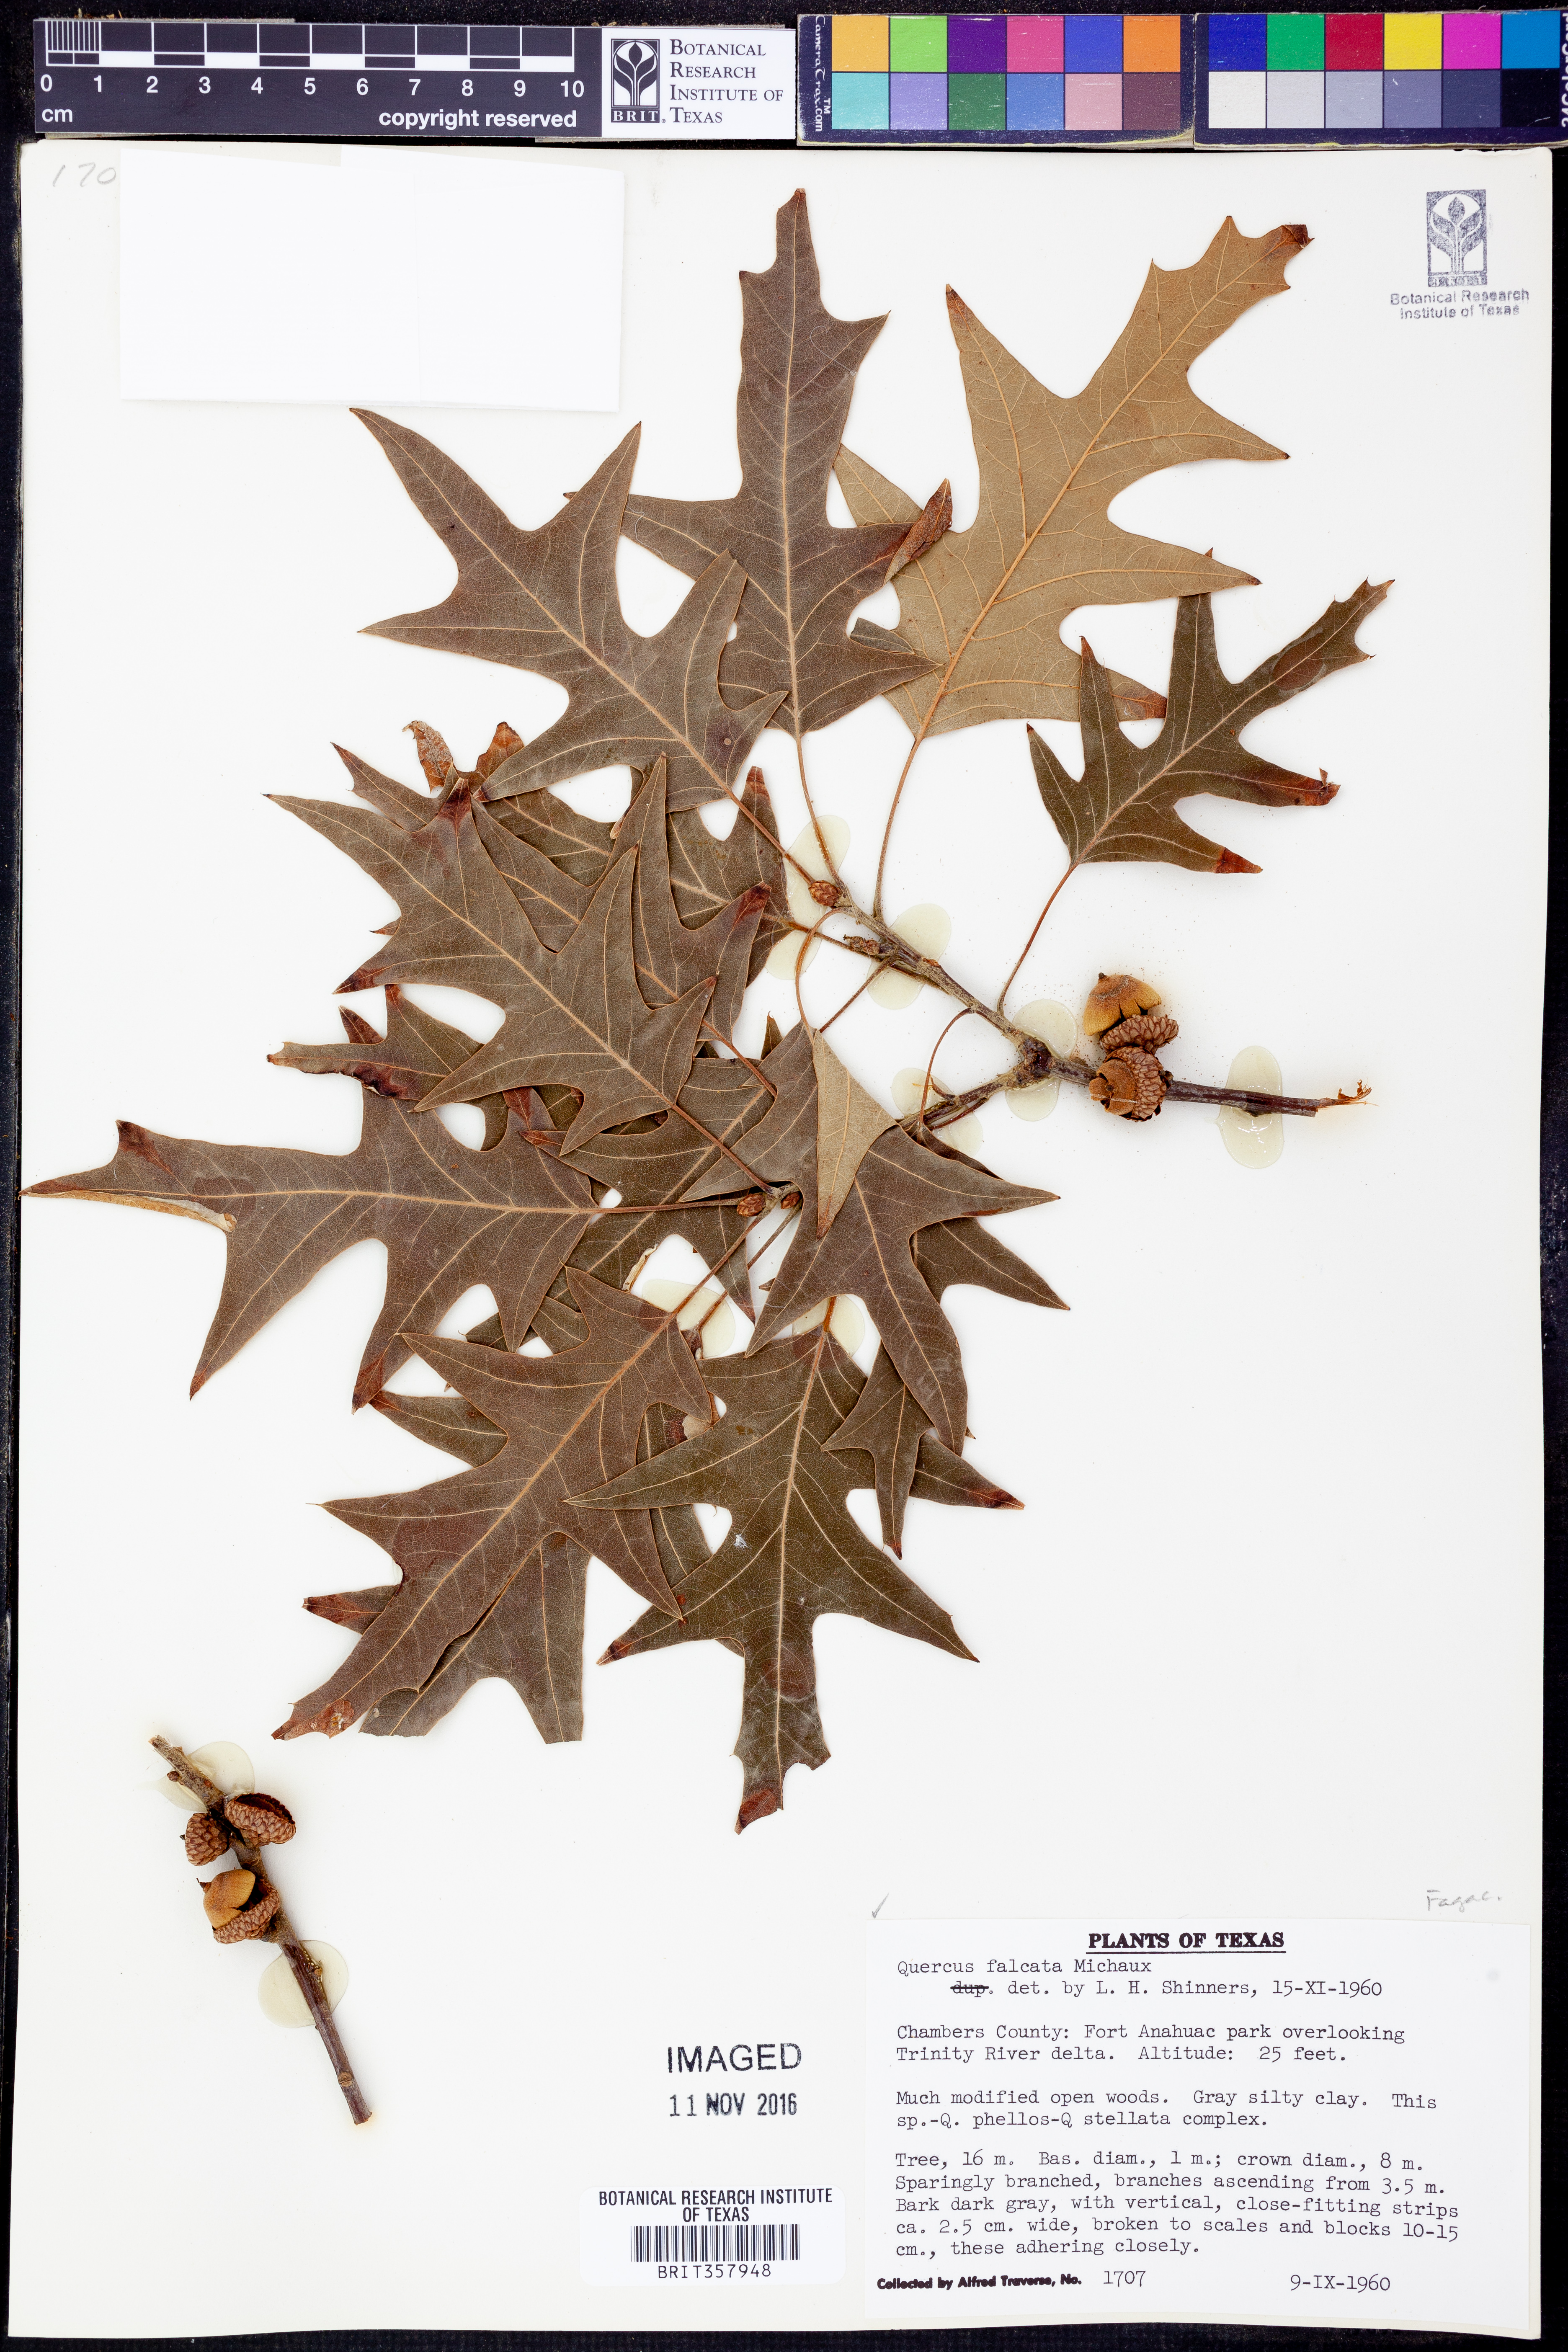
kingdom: Plantae
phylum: Tracheophyta
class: Magnoliopsida
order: Fagales
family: Fagaceae
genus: Quercus
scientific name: Quercus falcata
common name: Southern red oak
